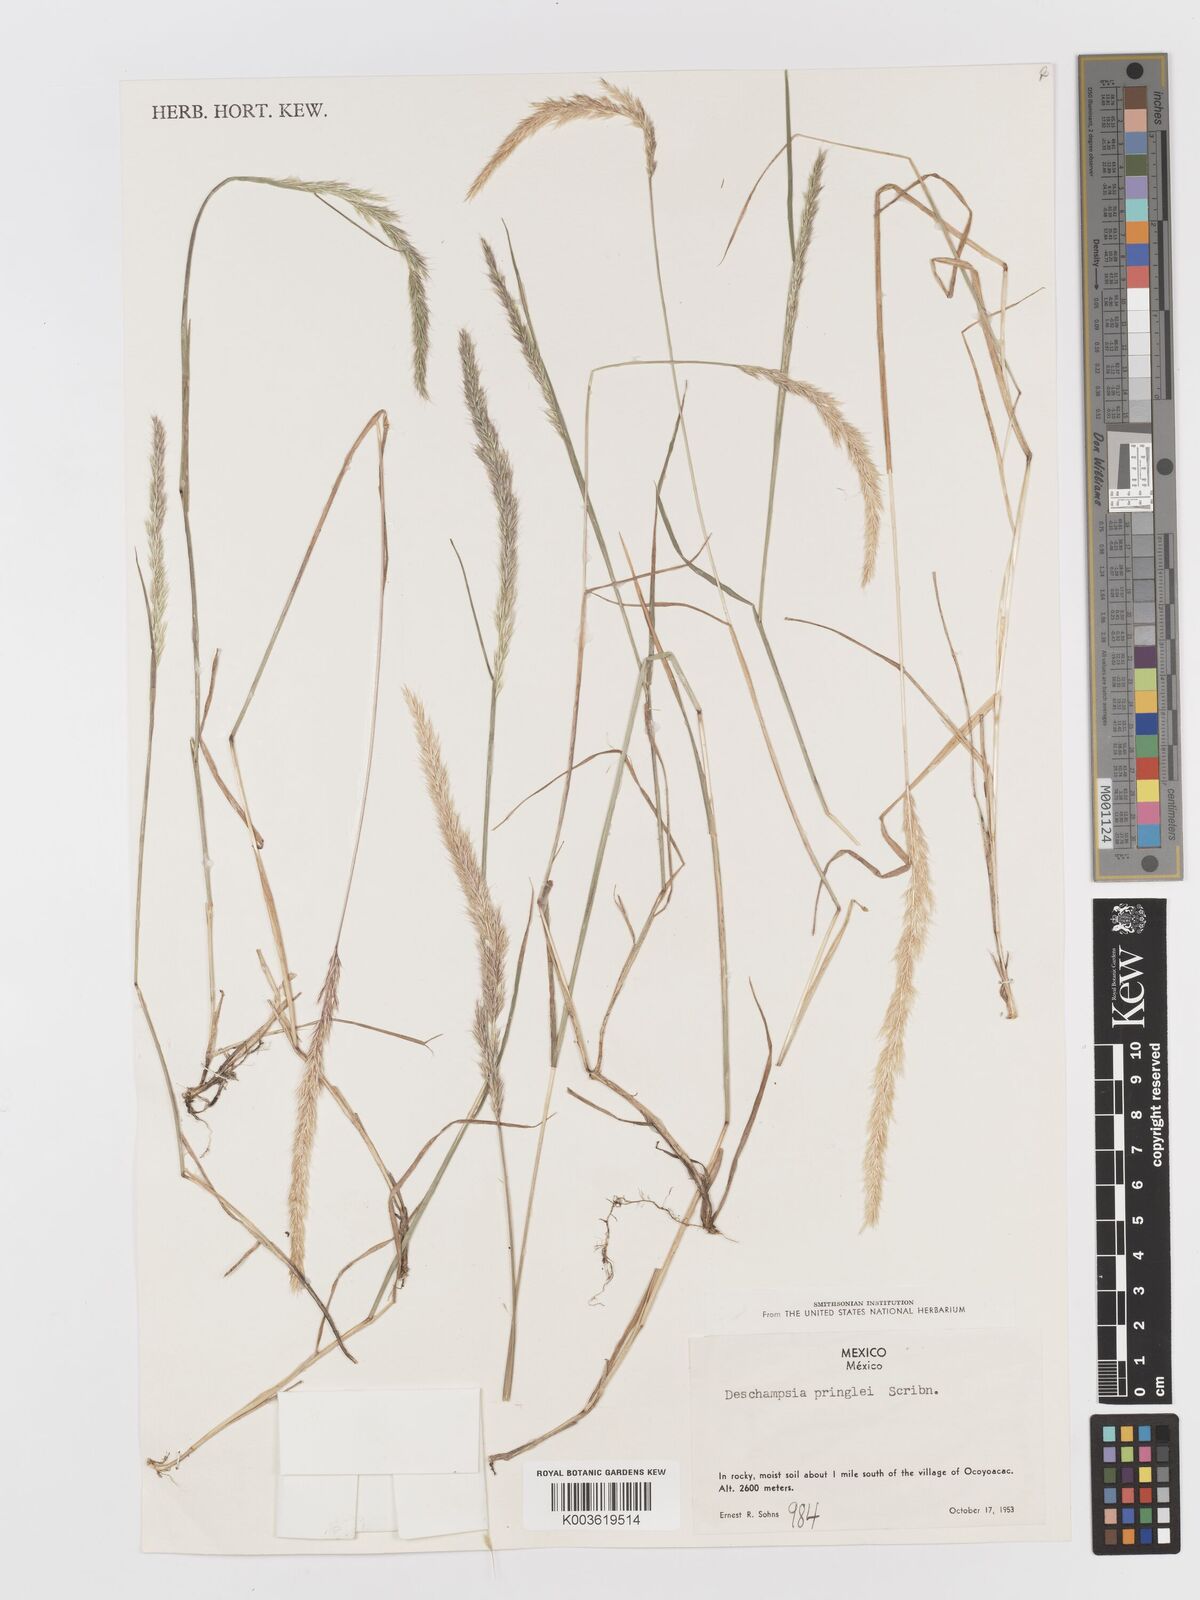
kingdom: Plantae
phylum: Tracheophyta
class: Liliopsida
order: Poales
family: Poaceae
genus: Peyritschia
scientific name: Peyritschia pringlei
